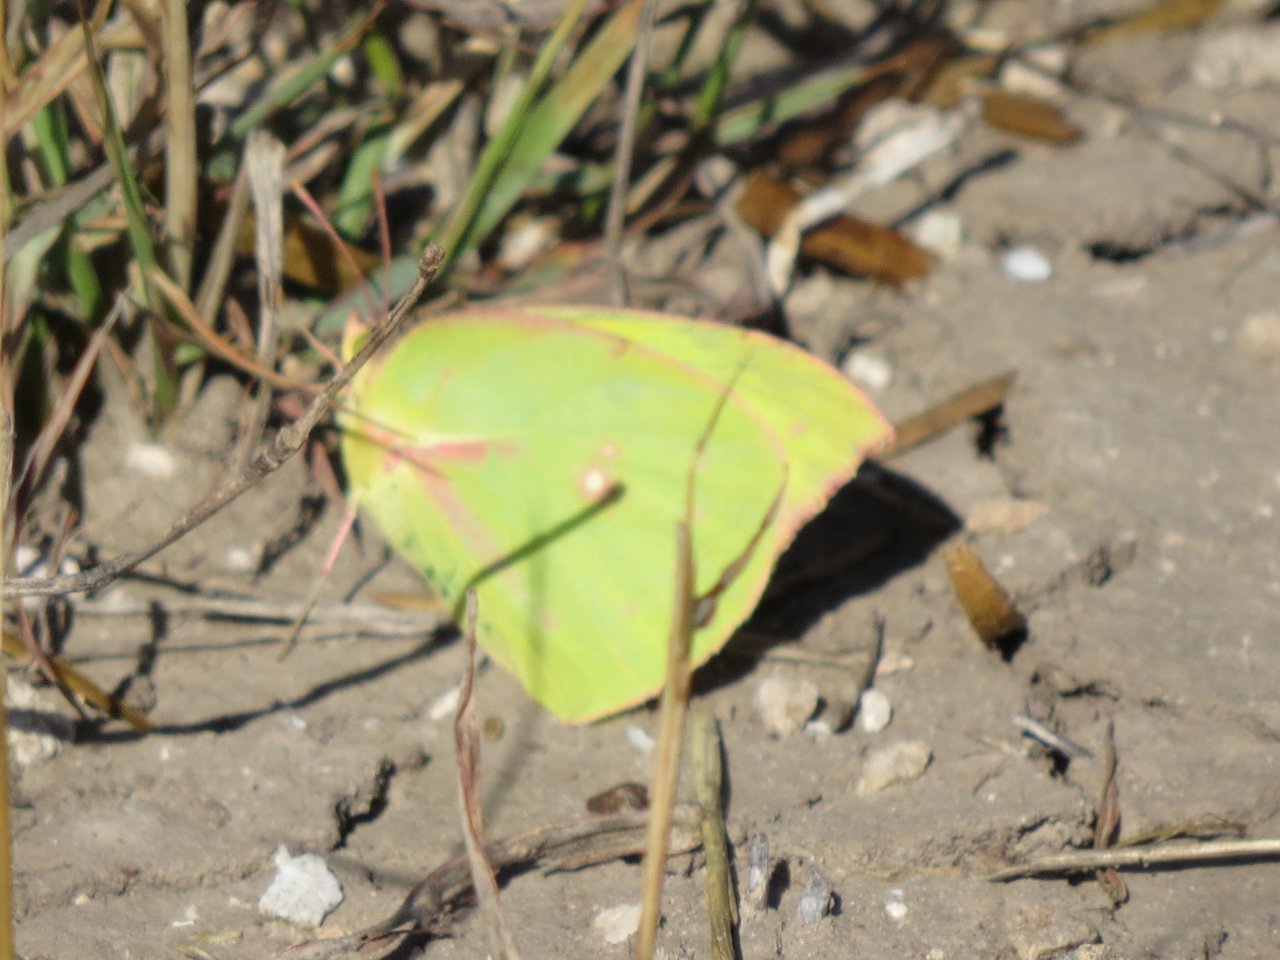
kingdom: Animalia
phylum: Arthropoda
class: Insecta
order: Lepidoptera
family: Pieridae
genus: Zerene
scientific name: Zerene cesonia
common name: Southern Dogface
